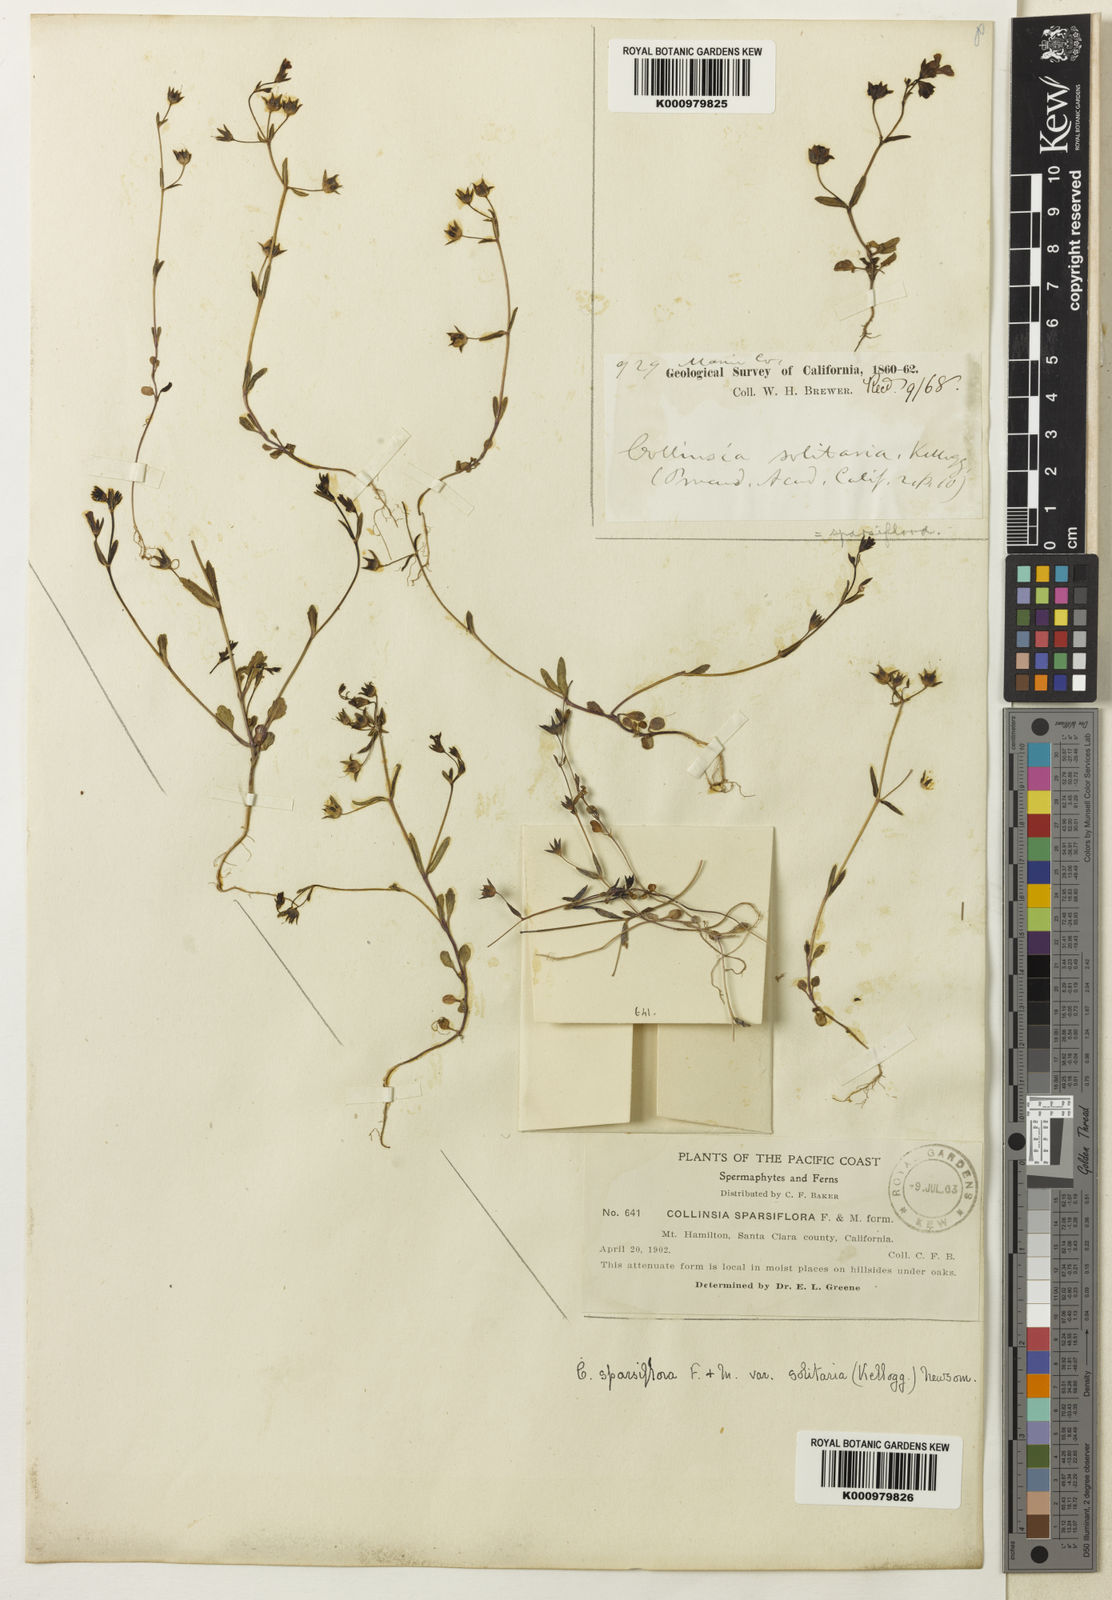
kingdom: Plantae
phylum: Tracheophyta
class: Magnoliopsida
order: Lamiales
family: Plantaginaceae
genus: Collinsia
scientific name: Collinsia sparsiflora
